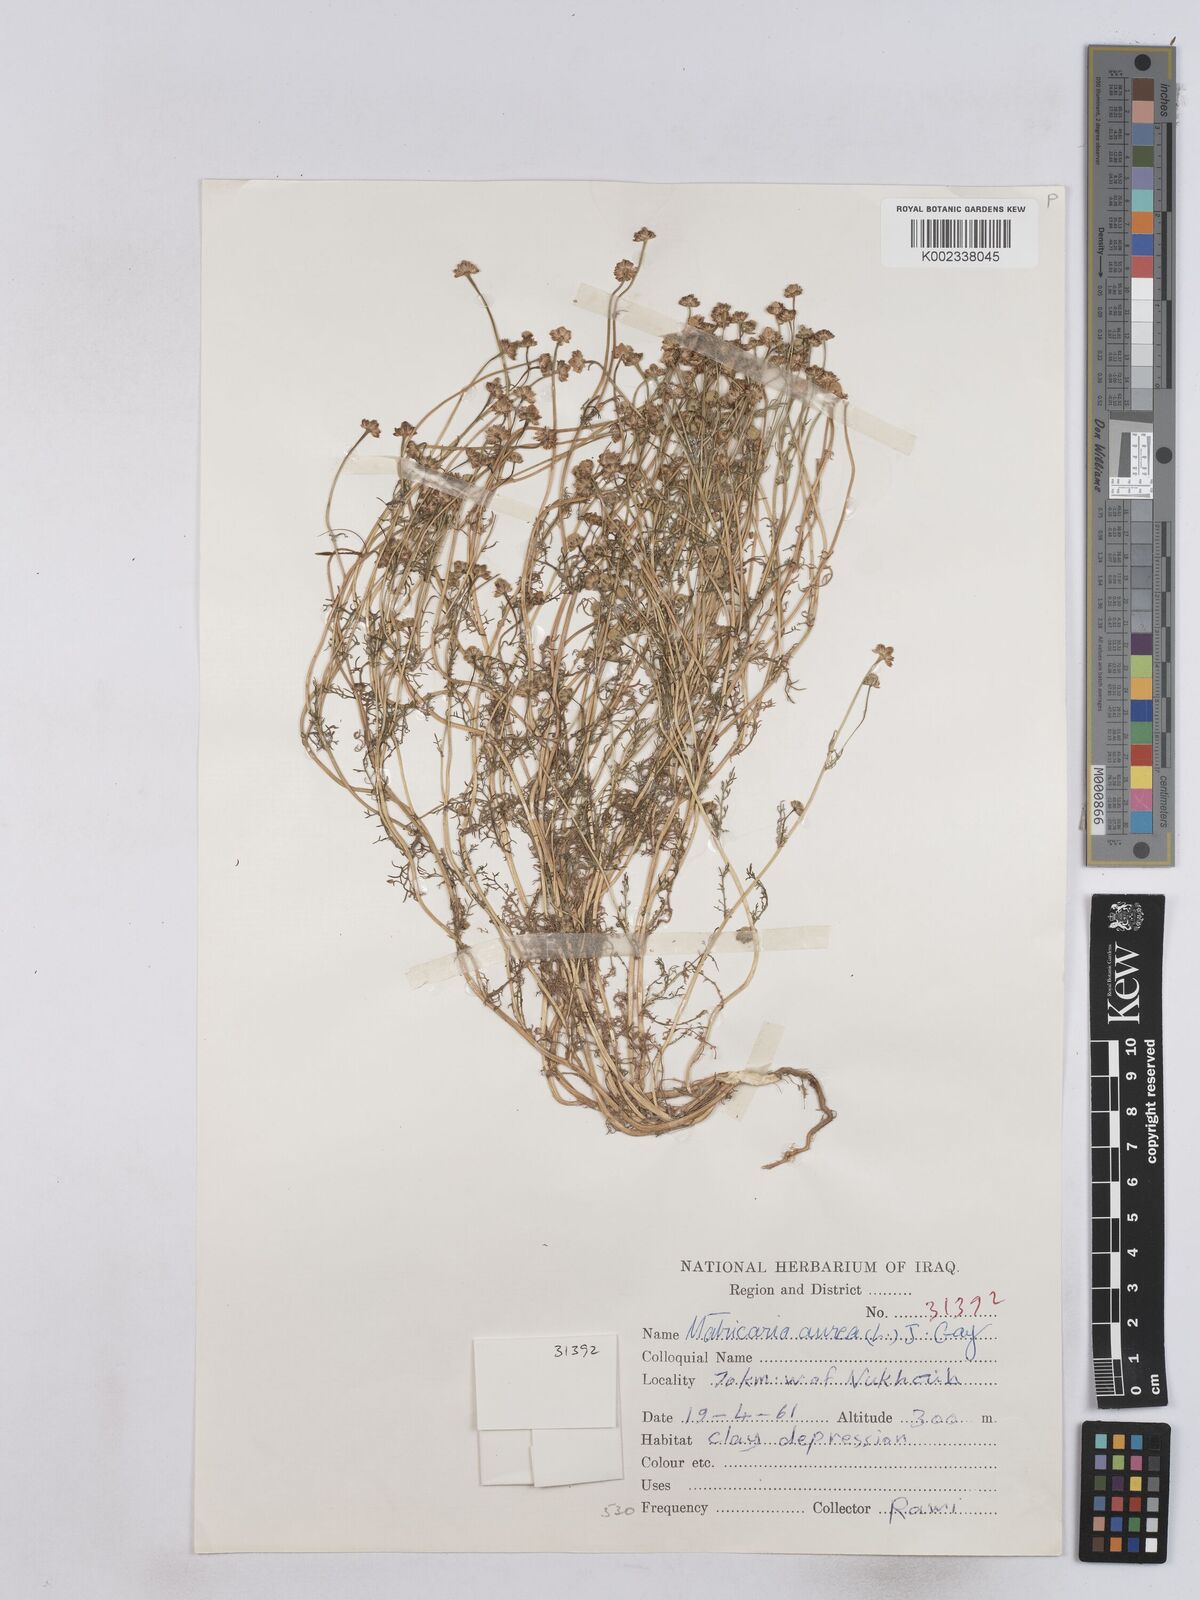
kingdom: Plantae
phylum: Tracheophyta
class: Magnoliopsida
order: Asterales
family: Asteraceae
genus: Matricaria
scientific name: Matricaria aurea
